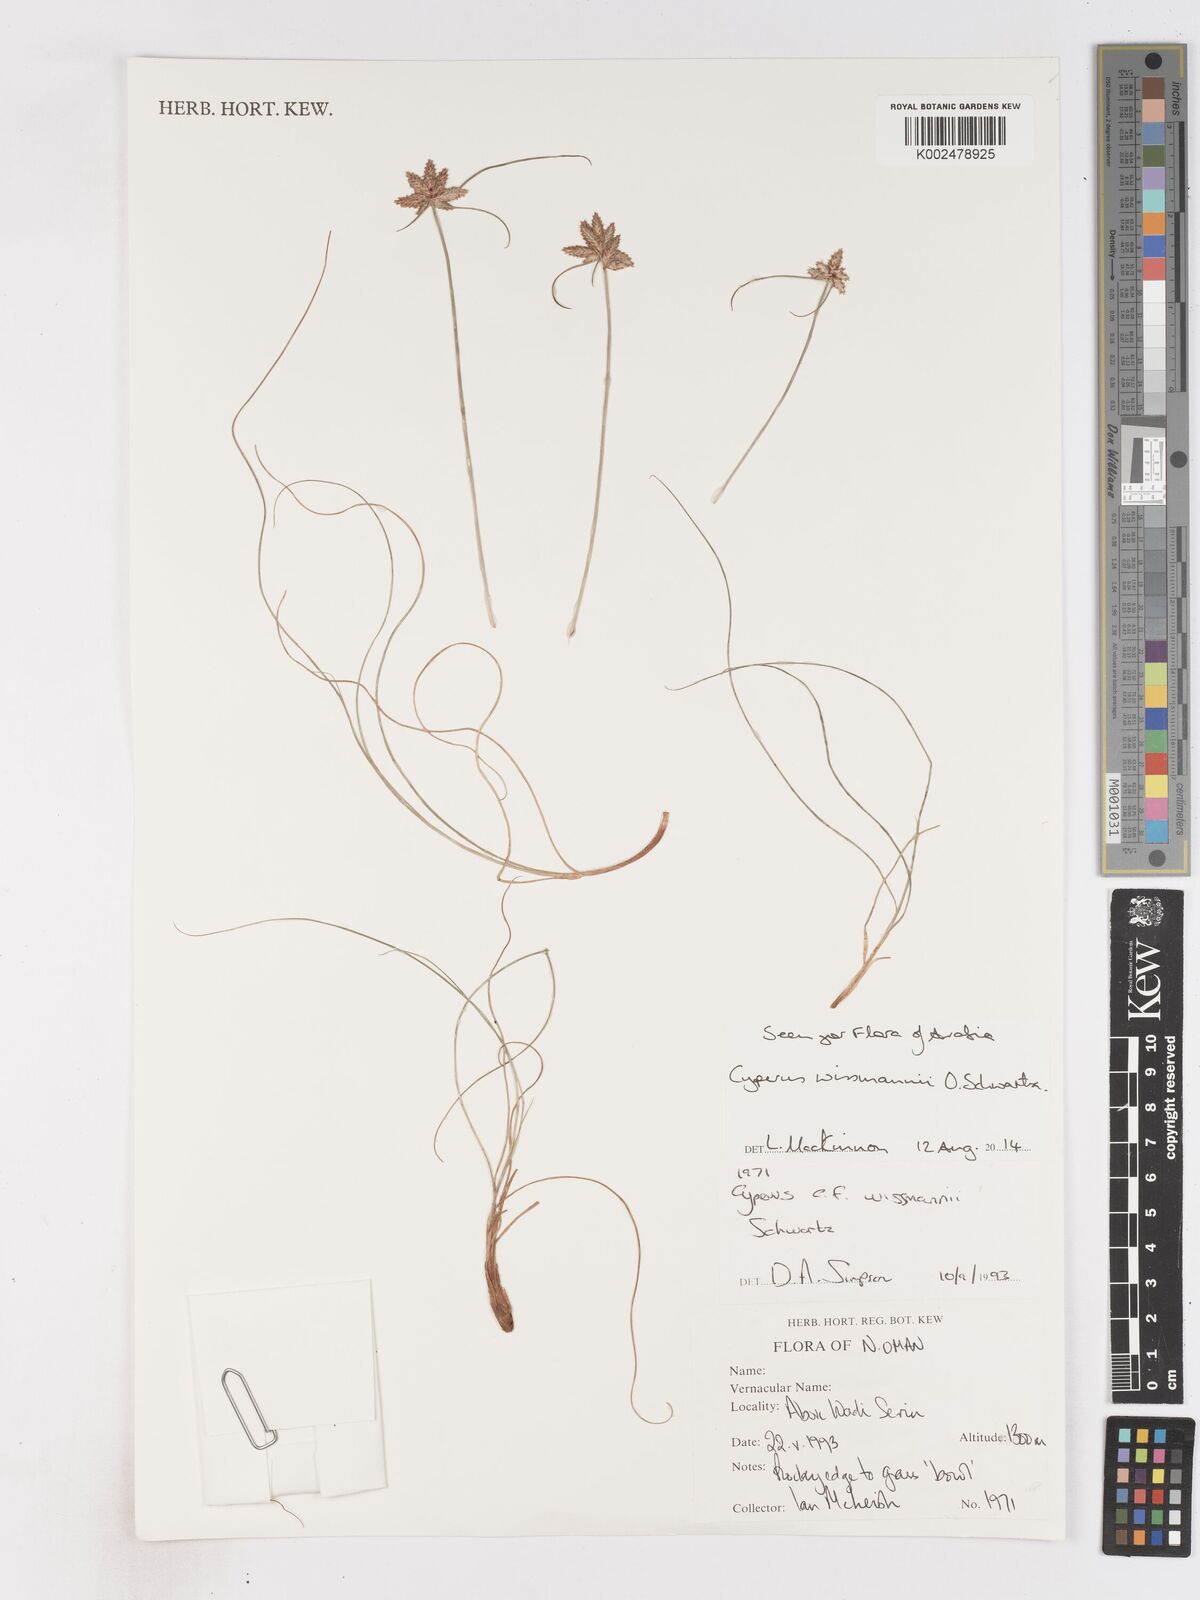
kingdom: Plantae
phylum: Tracheophyta
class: Liliopsida
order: Poales
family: Cyperaceae
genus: Cyperus
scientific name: Cyperus wissmannii
